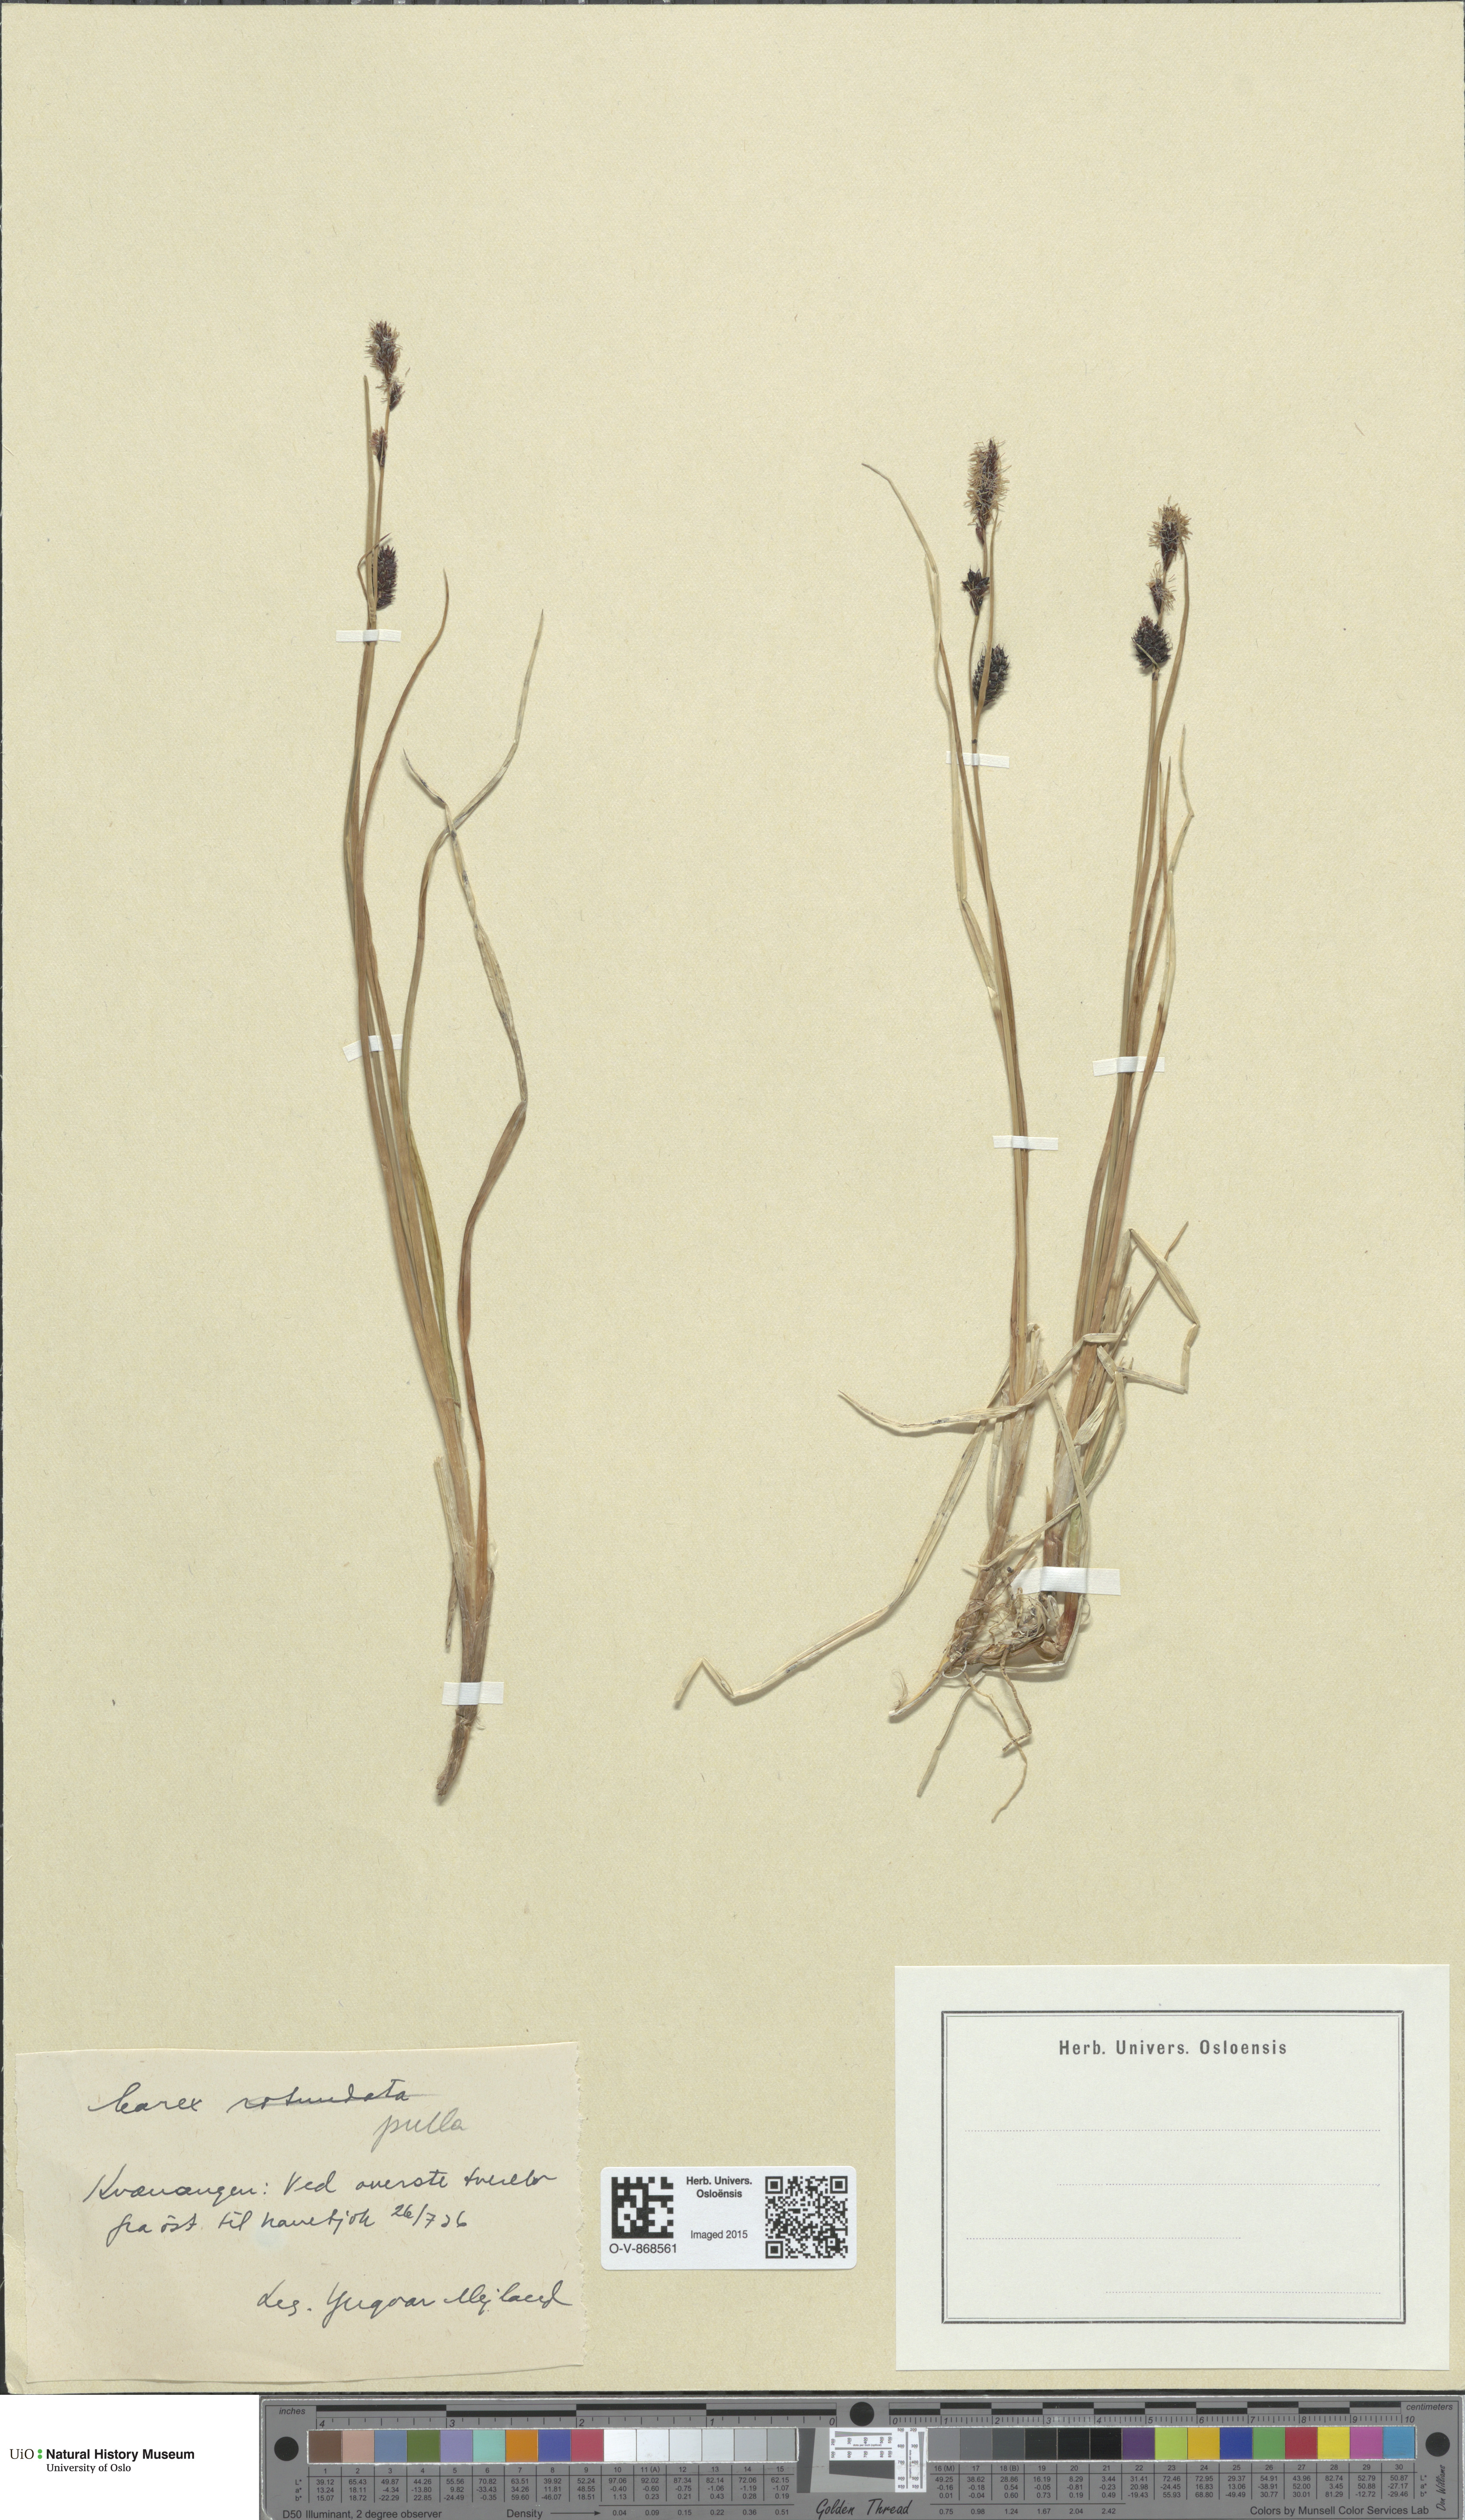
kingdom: Plantae
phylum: Tracheophyta
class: Liliopsida
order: Poales
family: Cyperaceae
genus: Carex
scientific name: Carex saxatilis
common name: Russet sedge
